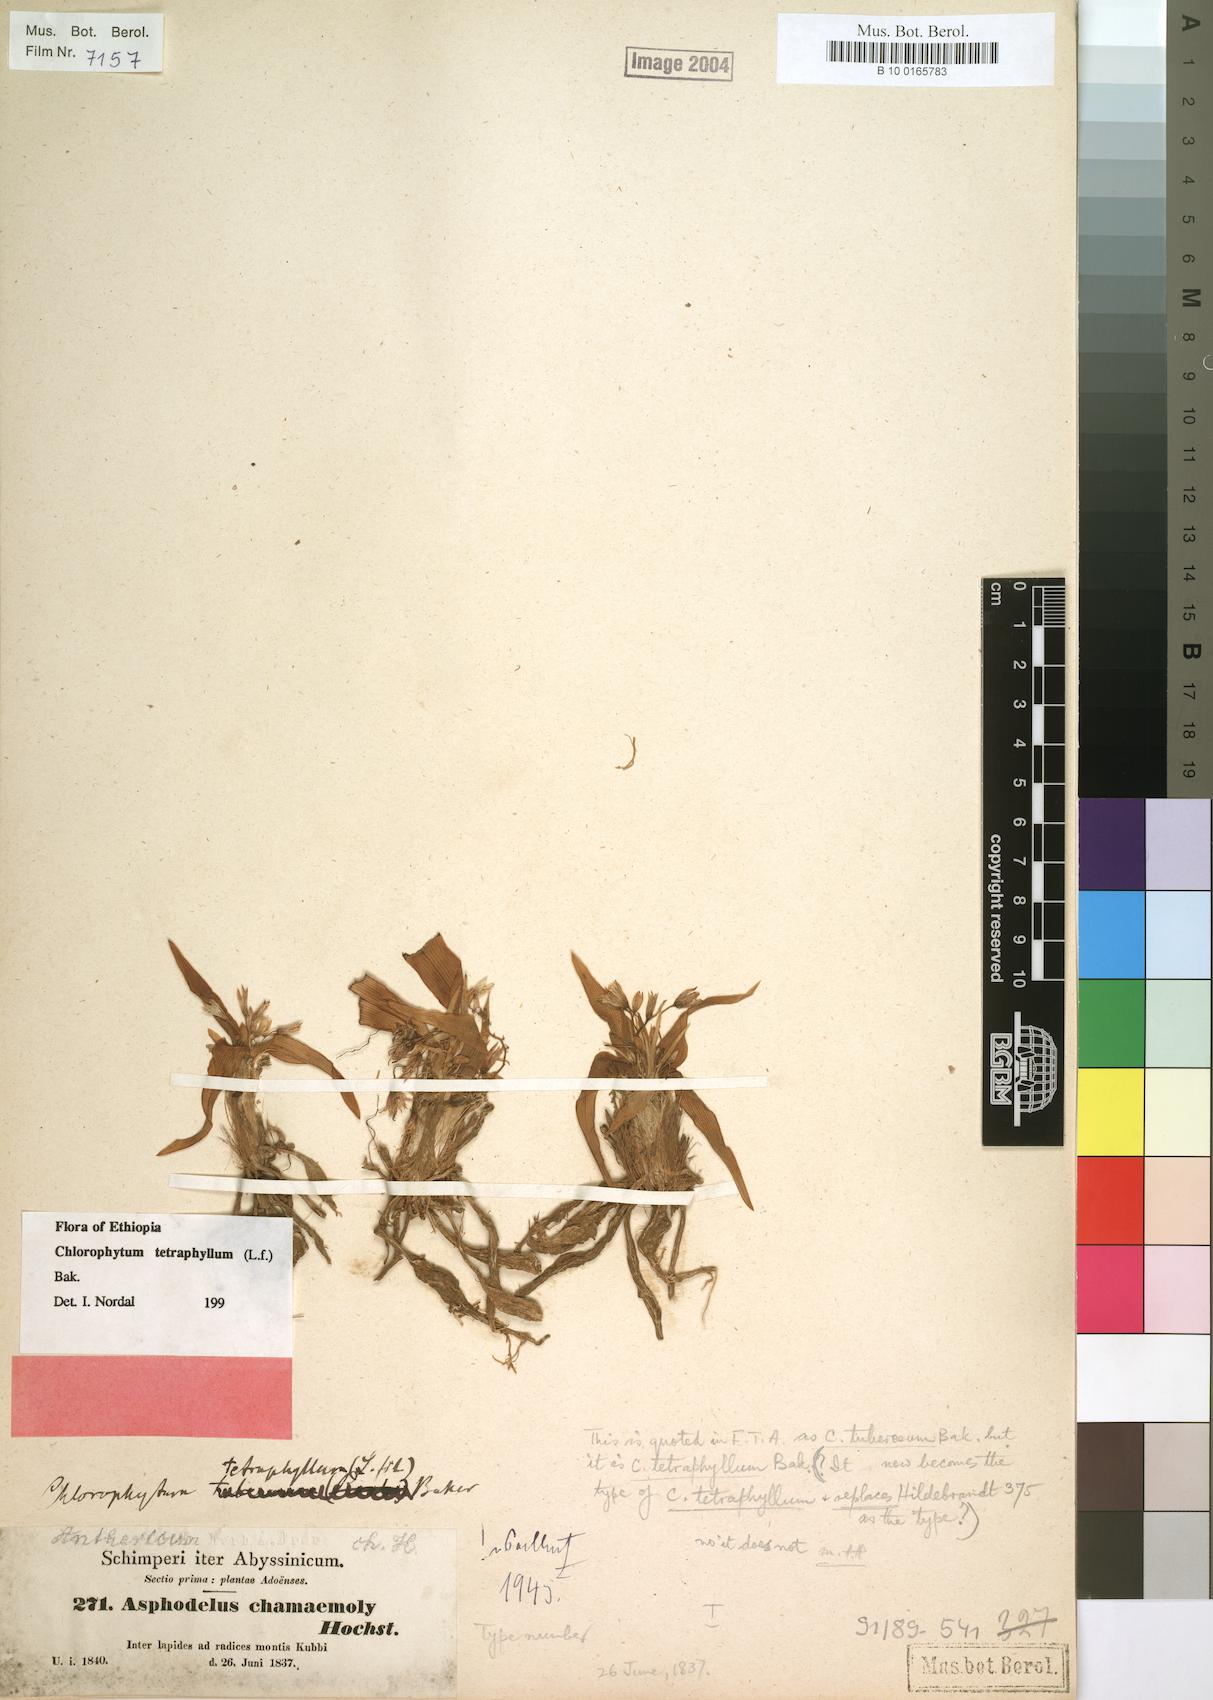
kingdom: Plantae
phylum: Tracheophyta
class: Liliopsida
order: Asparagales
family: Asparagaceae
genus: Chlorophytum
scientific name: Chlorophytum tetraphyllum
